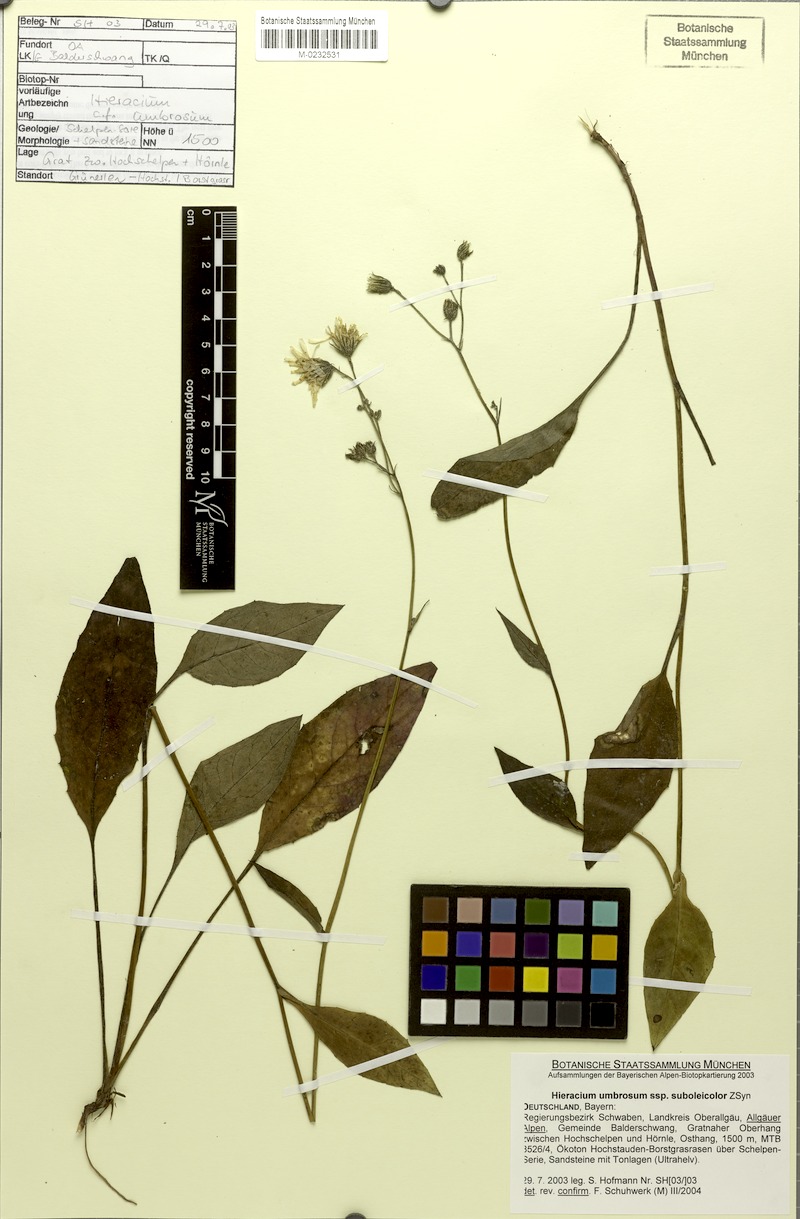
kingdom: Plantae
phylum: Tracheophyta
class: Magnoliopsida
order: Asterales
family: Asteraceae
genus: Hieracium
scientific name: Hieracium umbrosum
